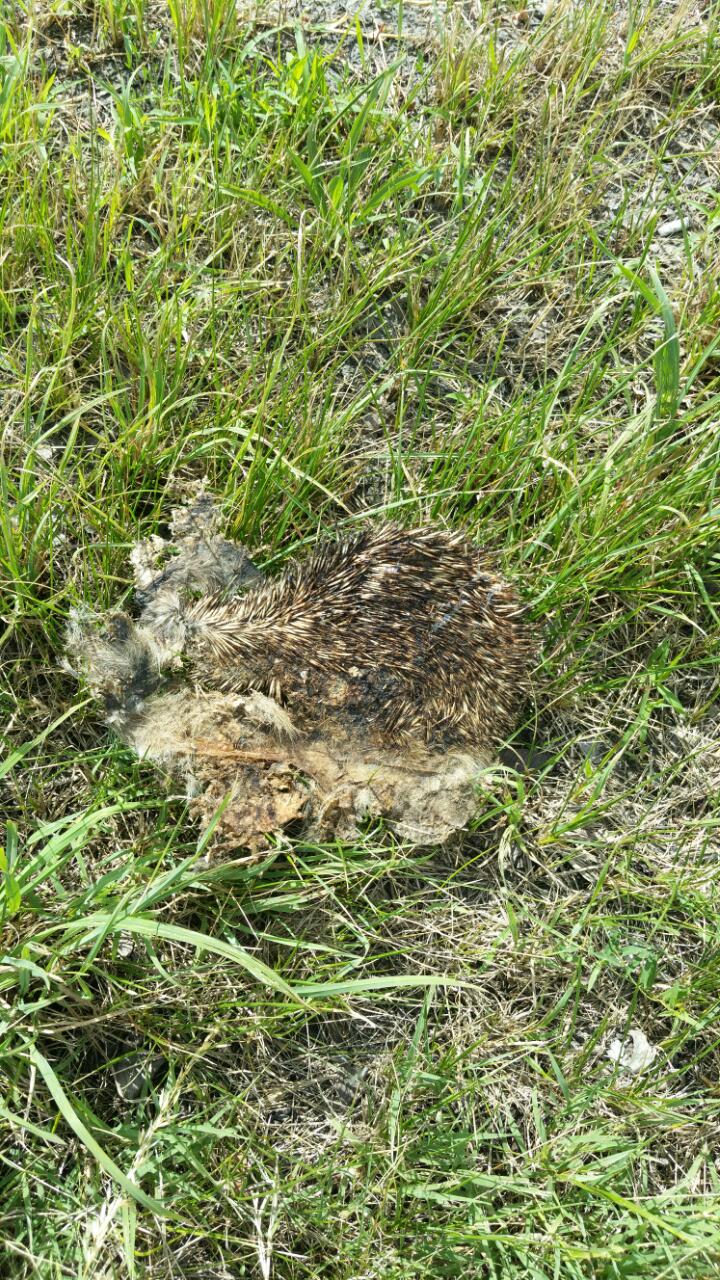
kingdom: Animalia
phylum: Chordata
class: Mammalia
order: Erinaceomorpha
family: Erinaceidae
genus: Erinaceus
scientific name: Erinaceus
